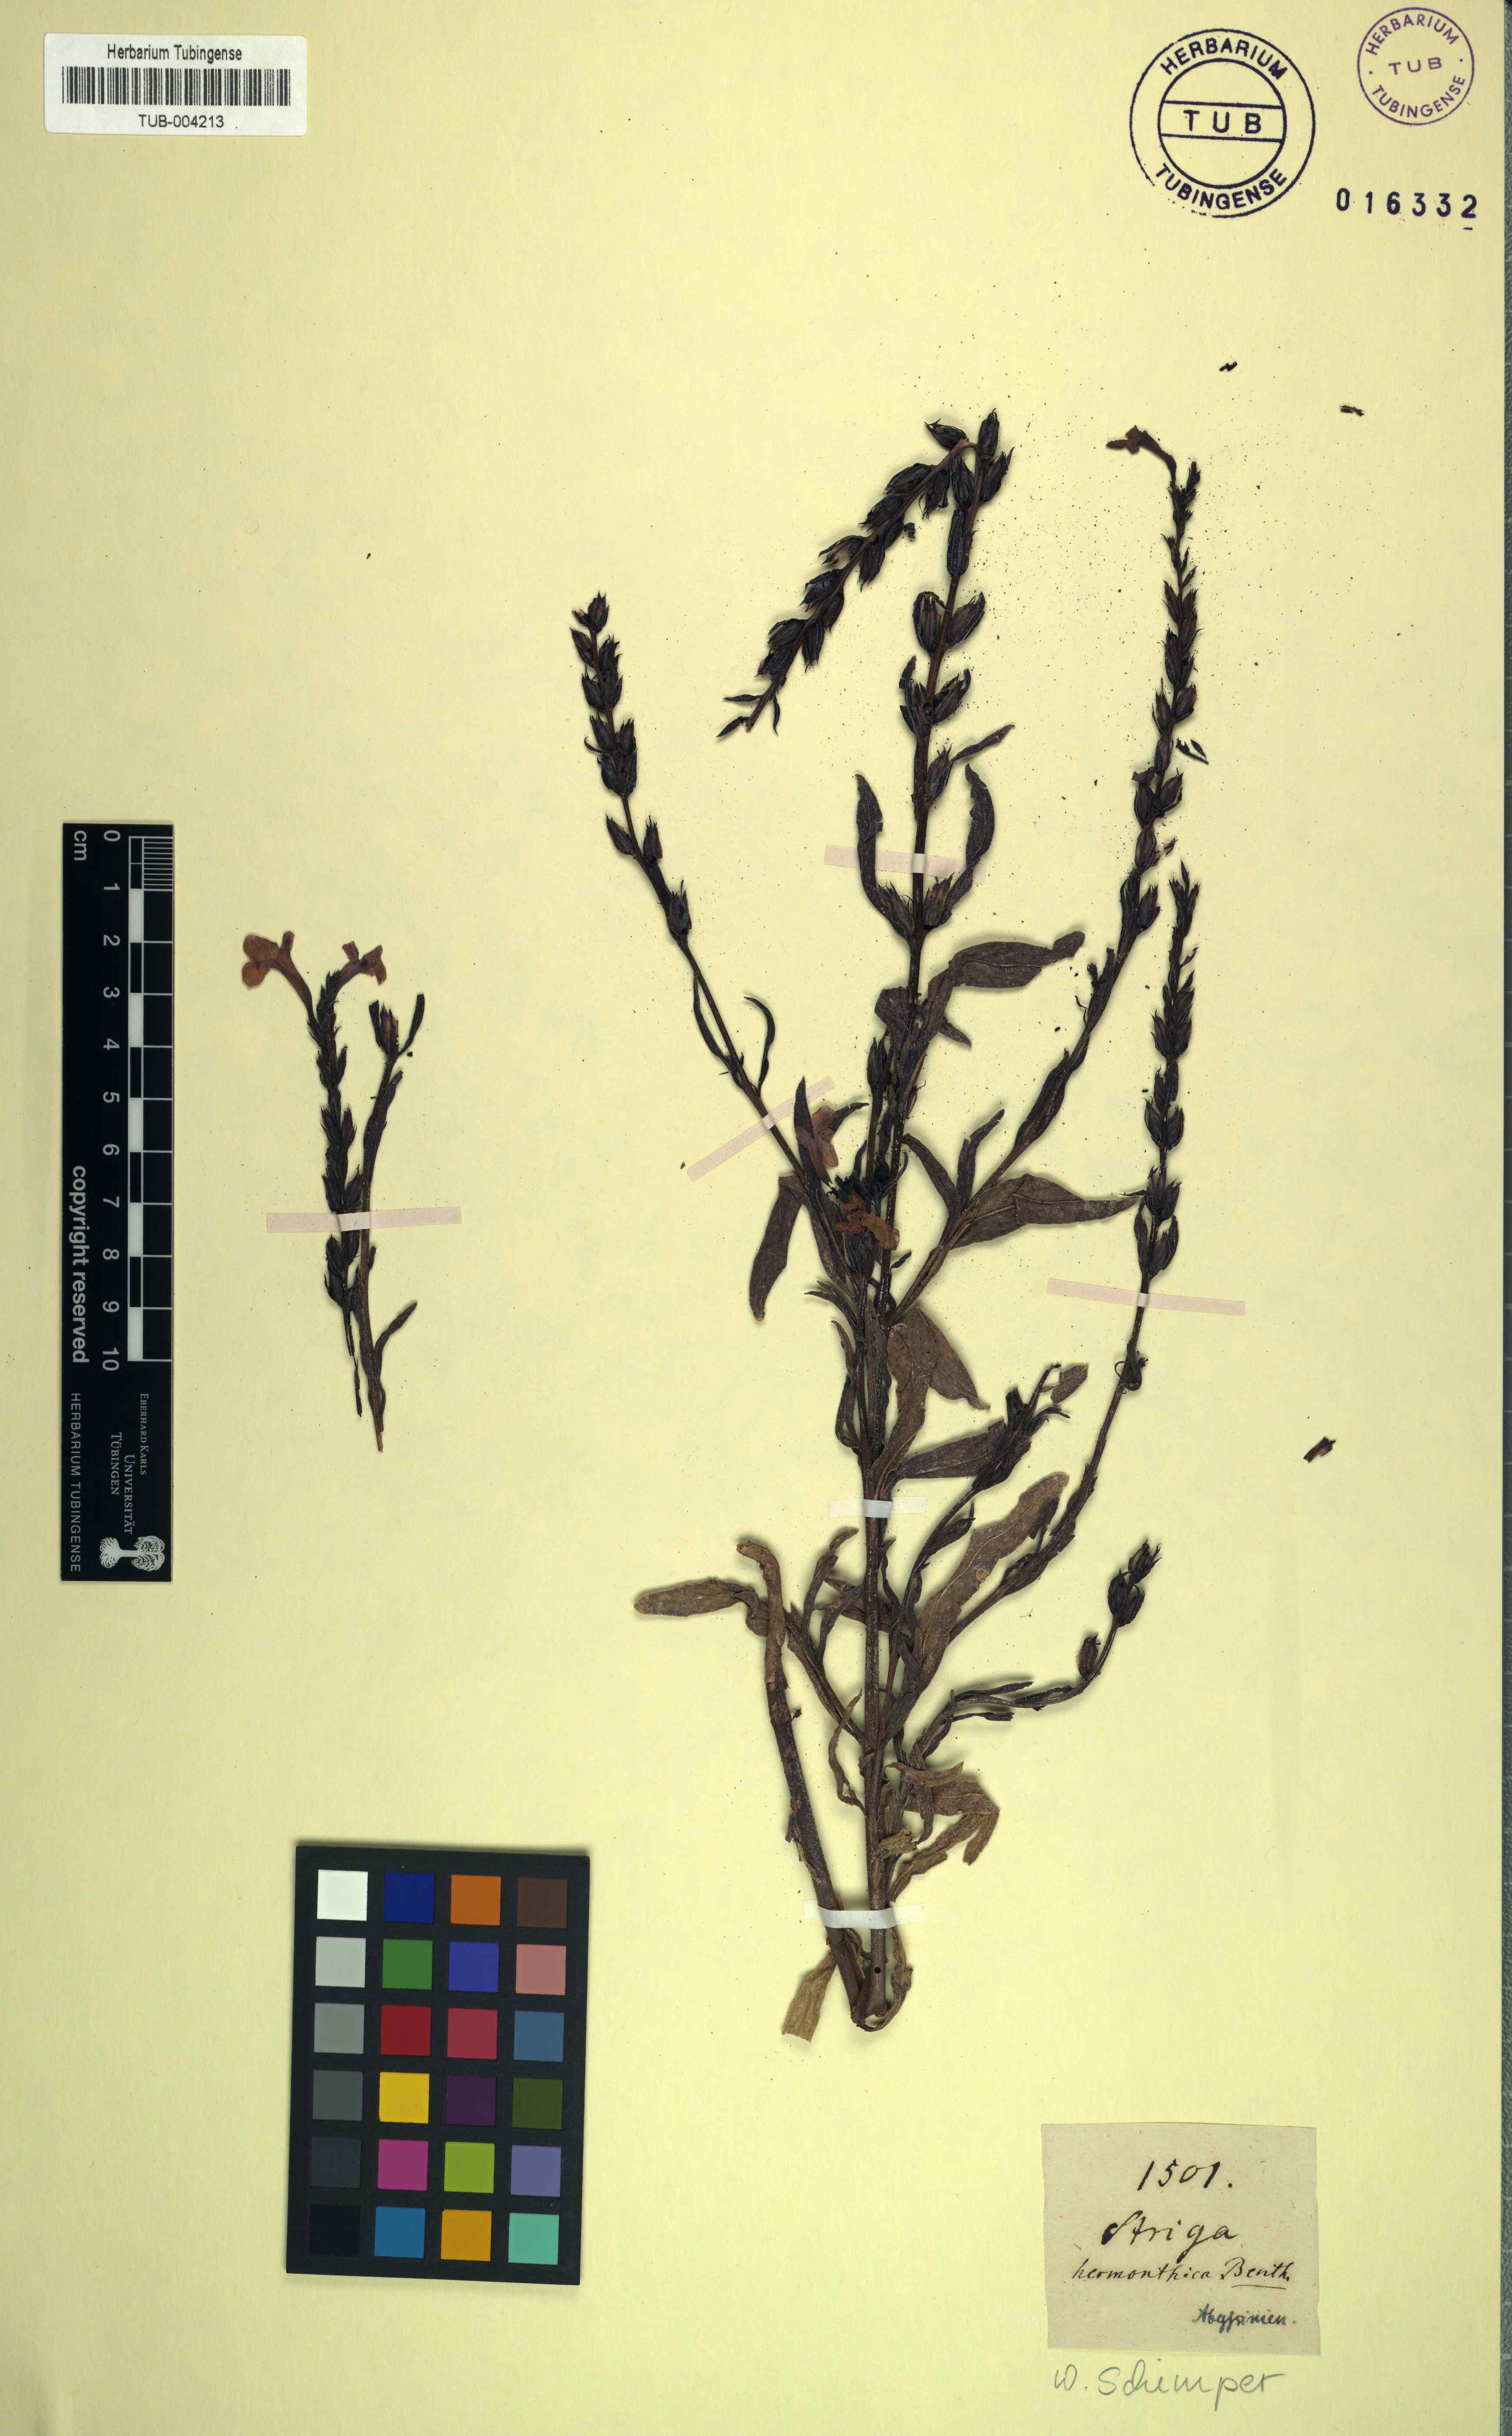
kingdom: Plantae
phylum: Tracheophyta
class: Magnoliopsida
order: Lamiales
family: Orobanchaceae
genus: Striga
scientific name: Striga hermonthica
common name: Purple witchweed
